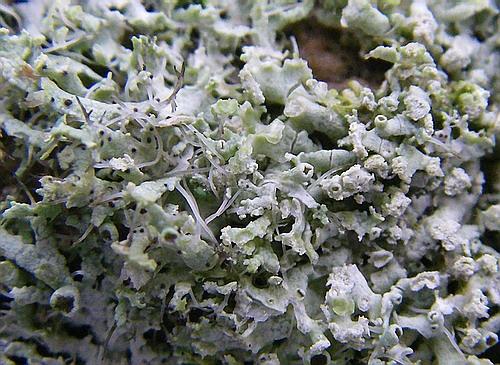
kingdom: Fungi
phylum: Ascomycota
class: Lecanoromycetes
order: Caliciales
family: Physciaceae
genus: Physcia
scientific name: Physcia tenella
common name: spæd rosetlav
